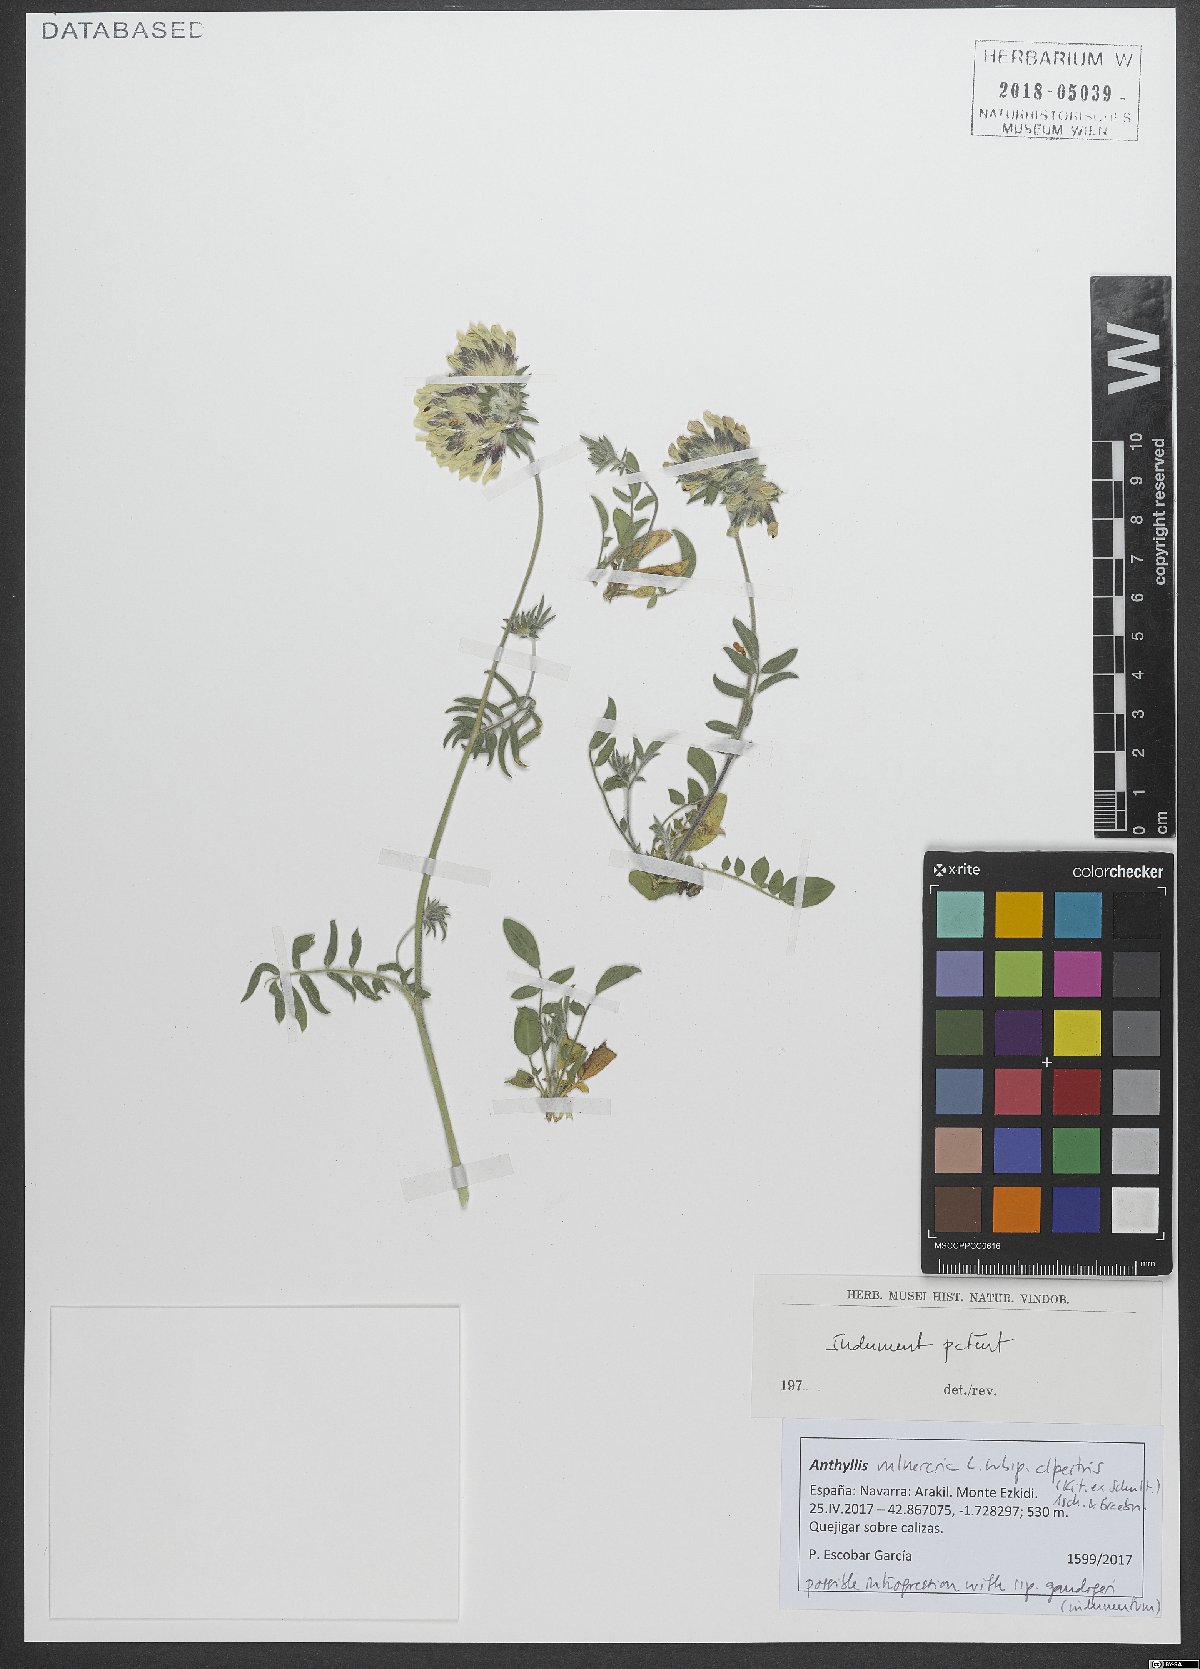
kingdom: Plantae
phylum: Tracheophyta
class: Magnoliopsida
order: Fabales
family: Fabaceae
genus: Anthyllis
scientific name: Anthyllis vulneraria
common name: Kidney vetch
